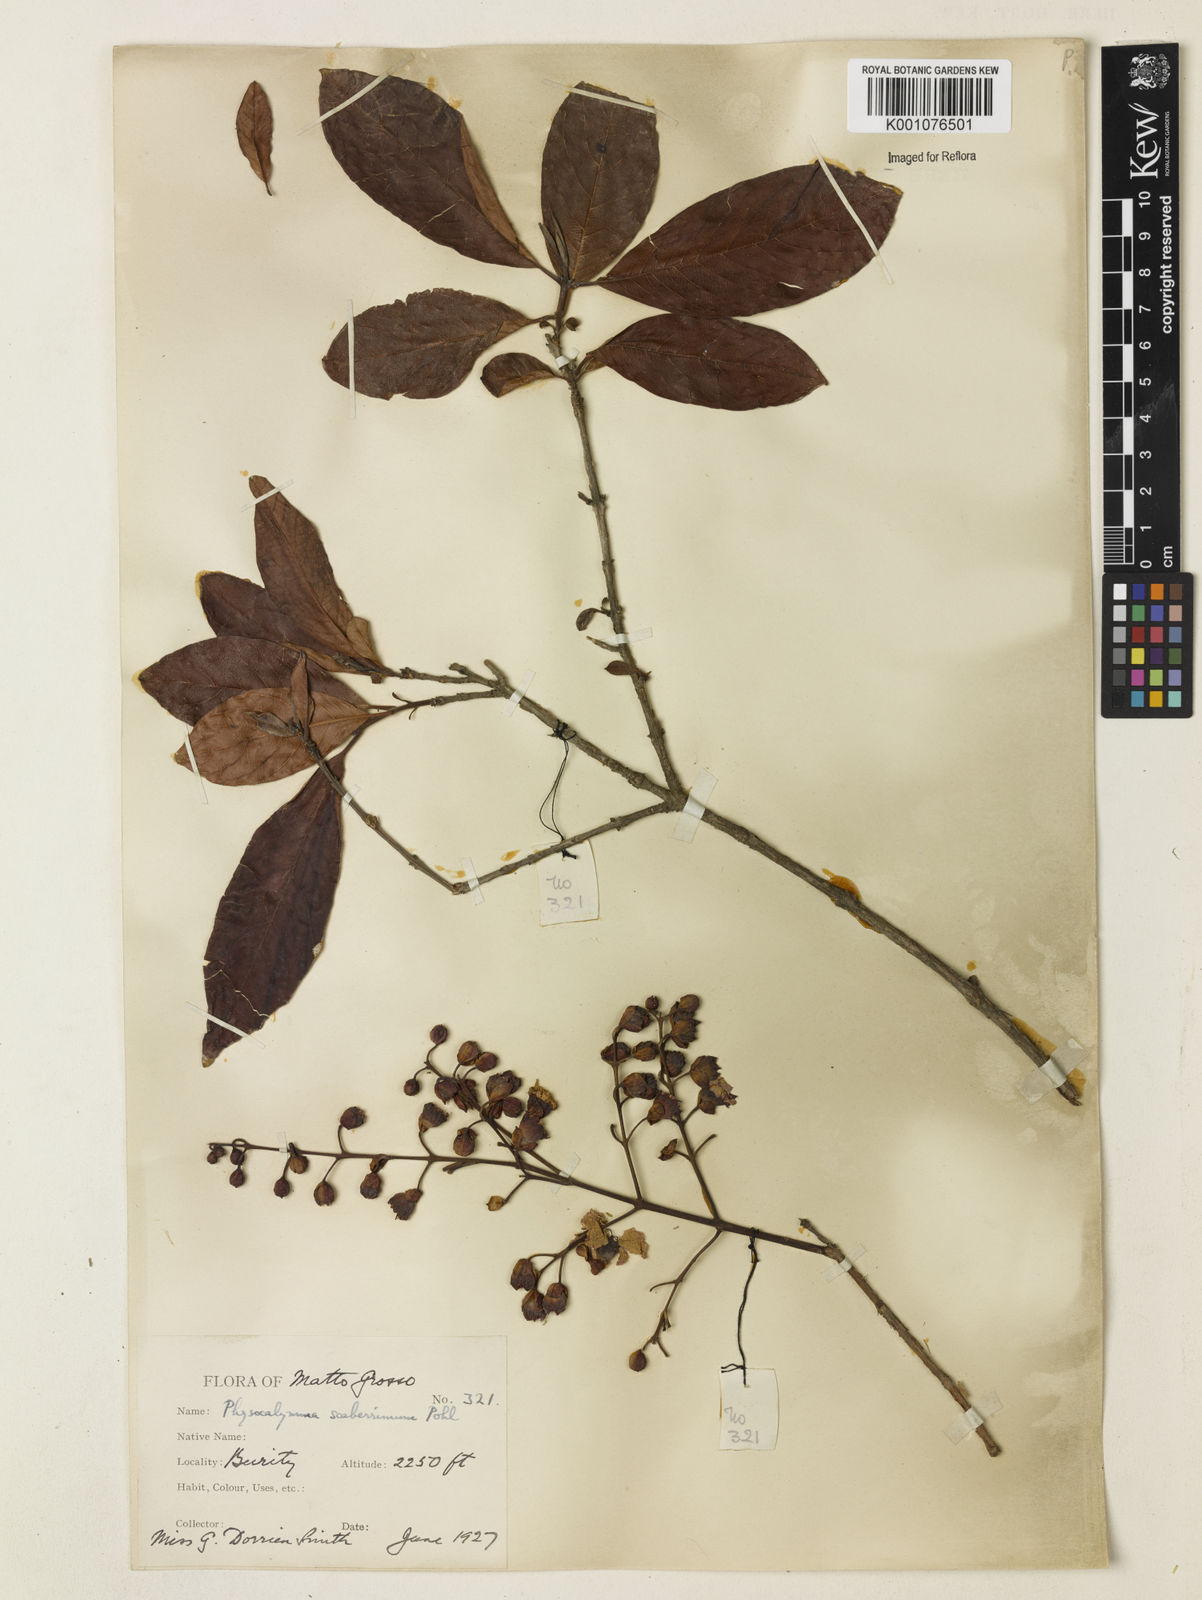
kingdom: Plantae
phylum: Tracheophyta
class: Magnoliopsida
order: Myrtales
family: Lythraceae
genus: Physocalymma
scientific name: Physocalymma scaberrimum
